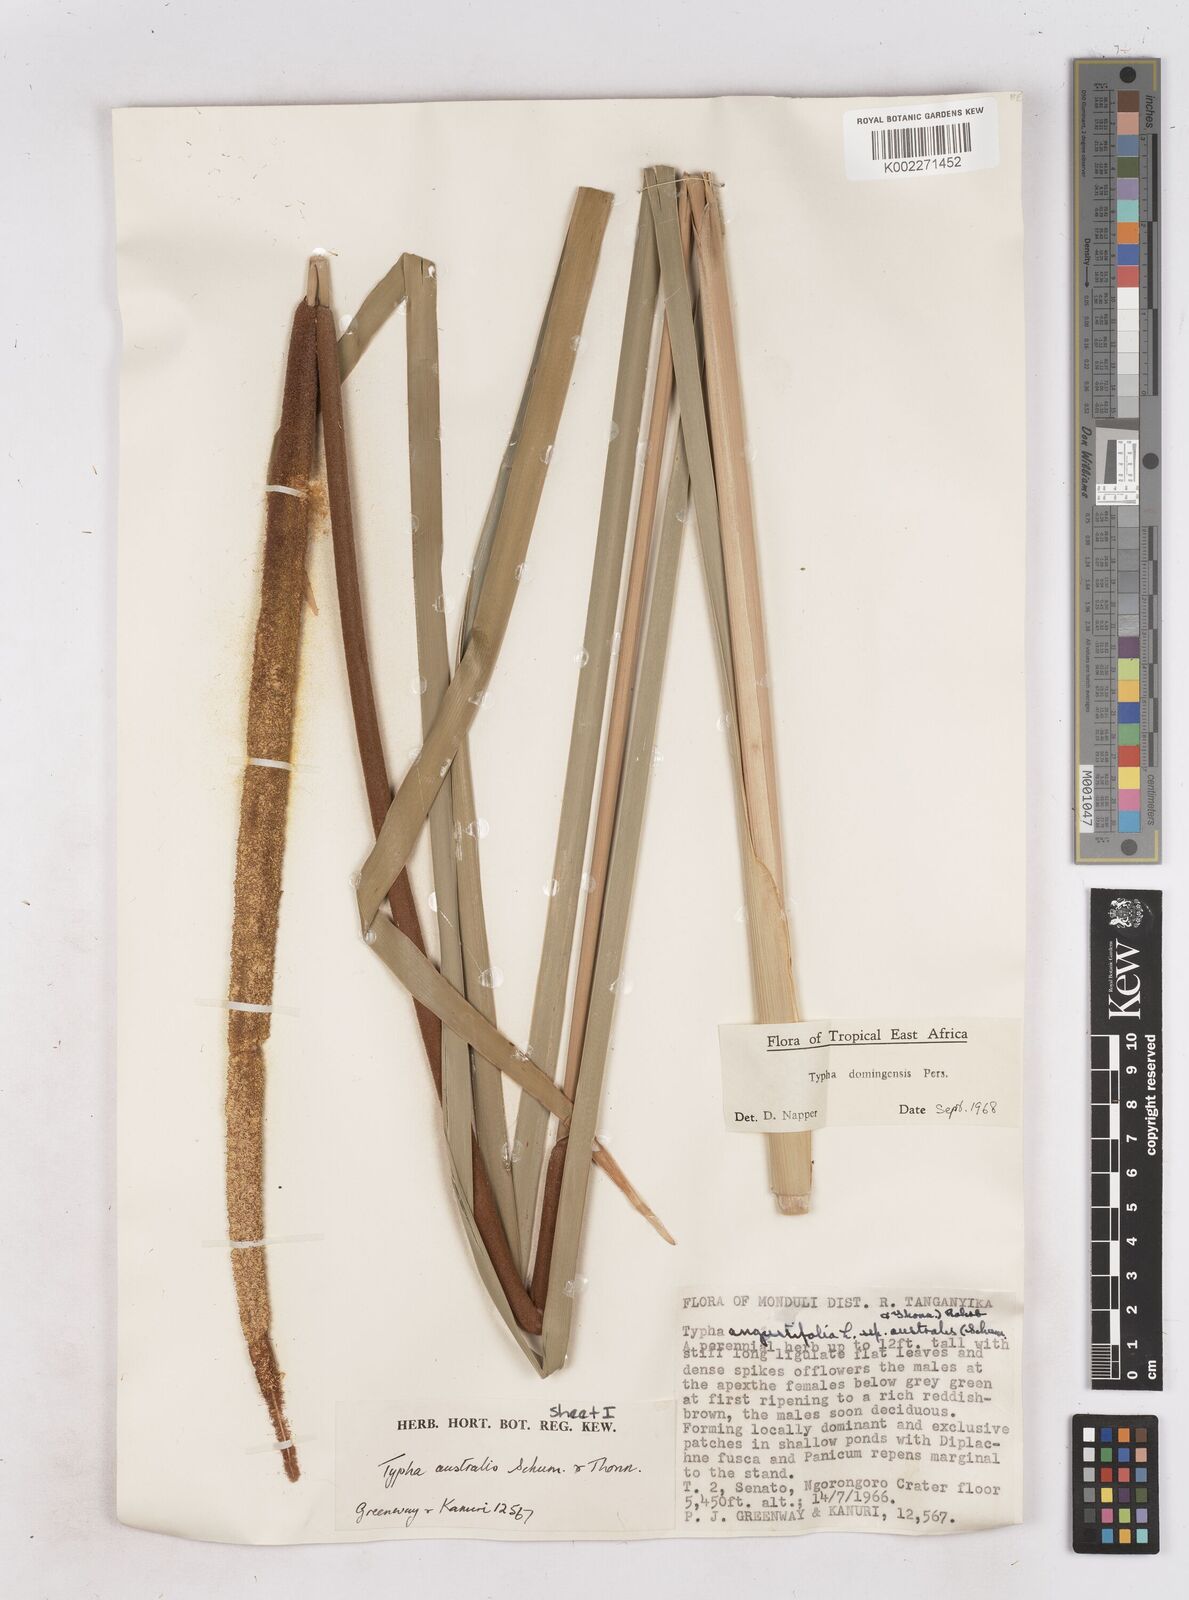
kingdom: Plantae
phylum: Tracheophyta
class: Liliopsida
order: Poales
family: Typhaceae
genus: Typha
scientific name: Typha domingensis
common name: Southern cattail
